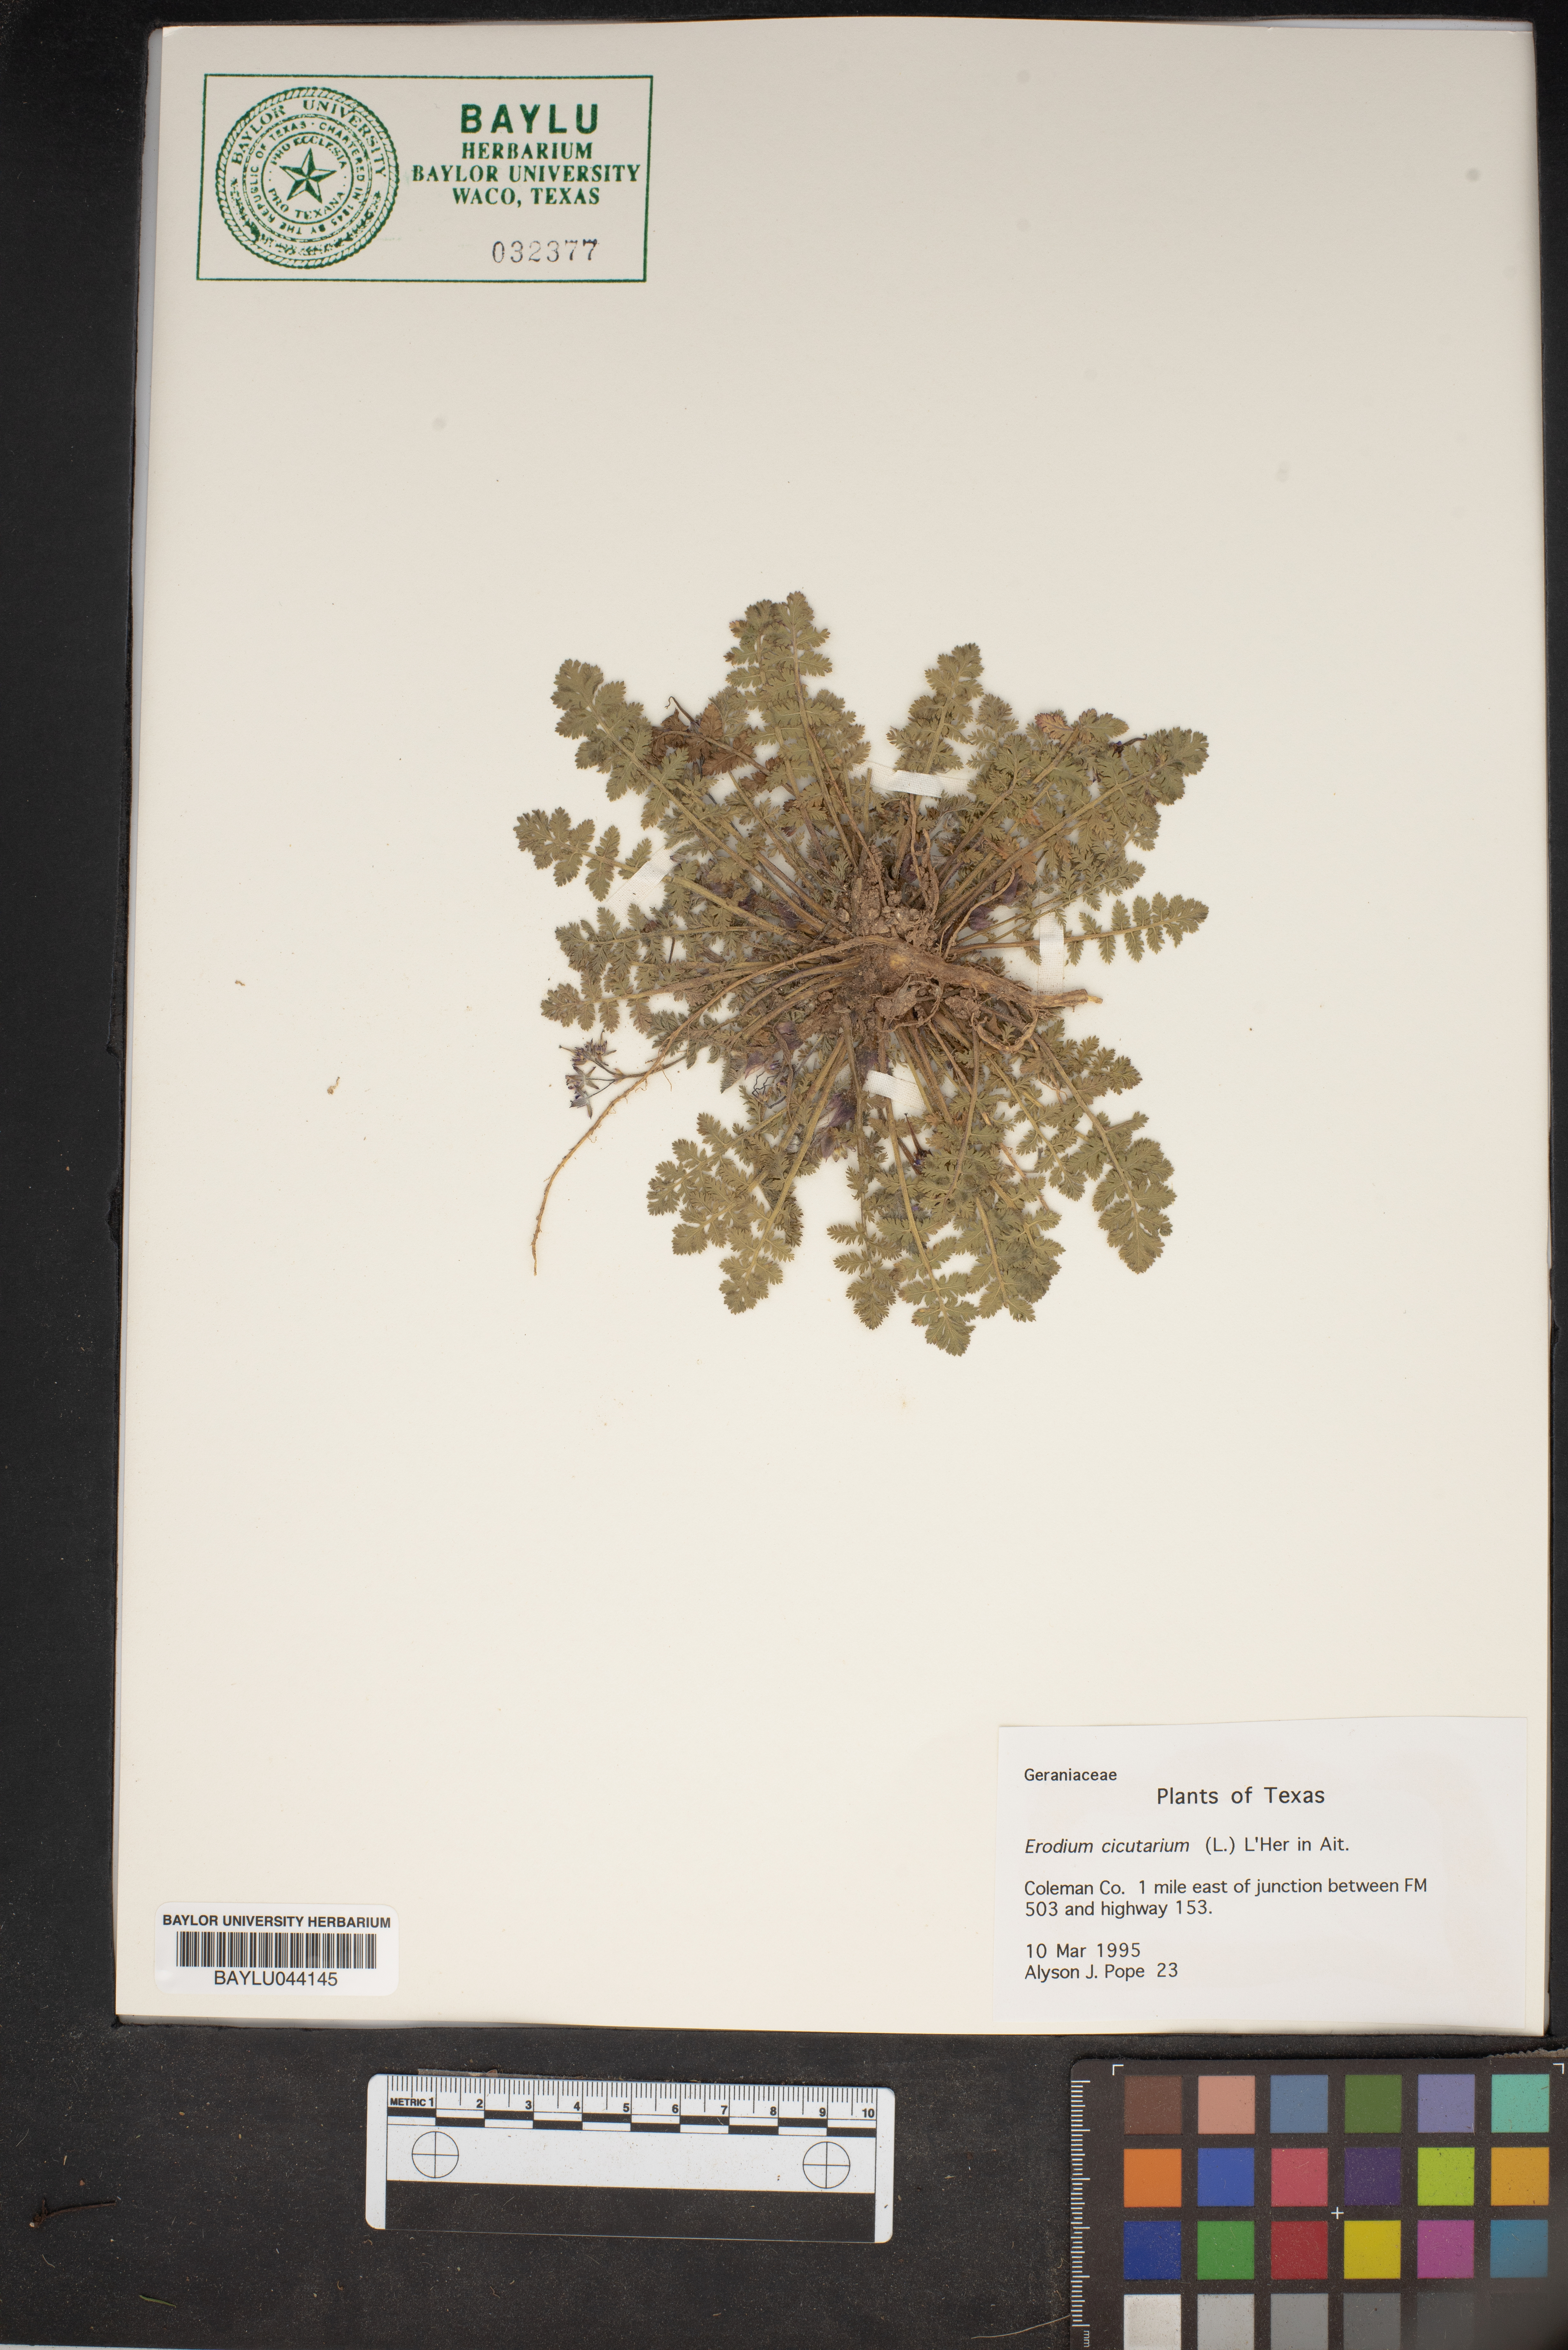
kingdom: Plantae
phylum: Tracheophyta
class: Magnoliopsida
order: Geraniales
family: Geraniaceae
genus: Erodium
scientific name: Erodium cicutarium
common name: Common stork's-bill
